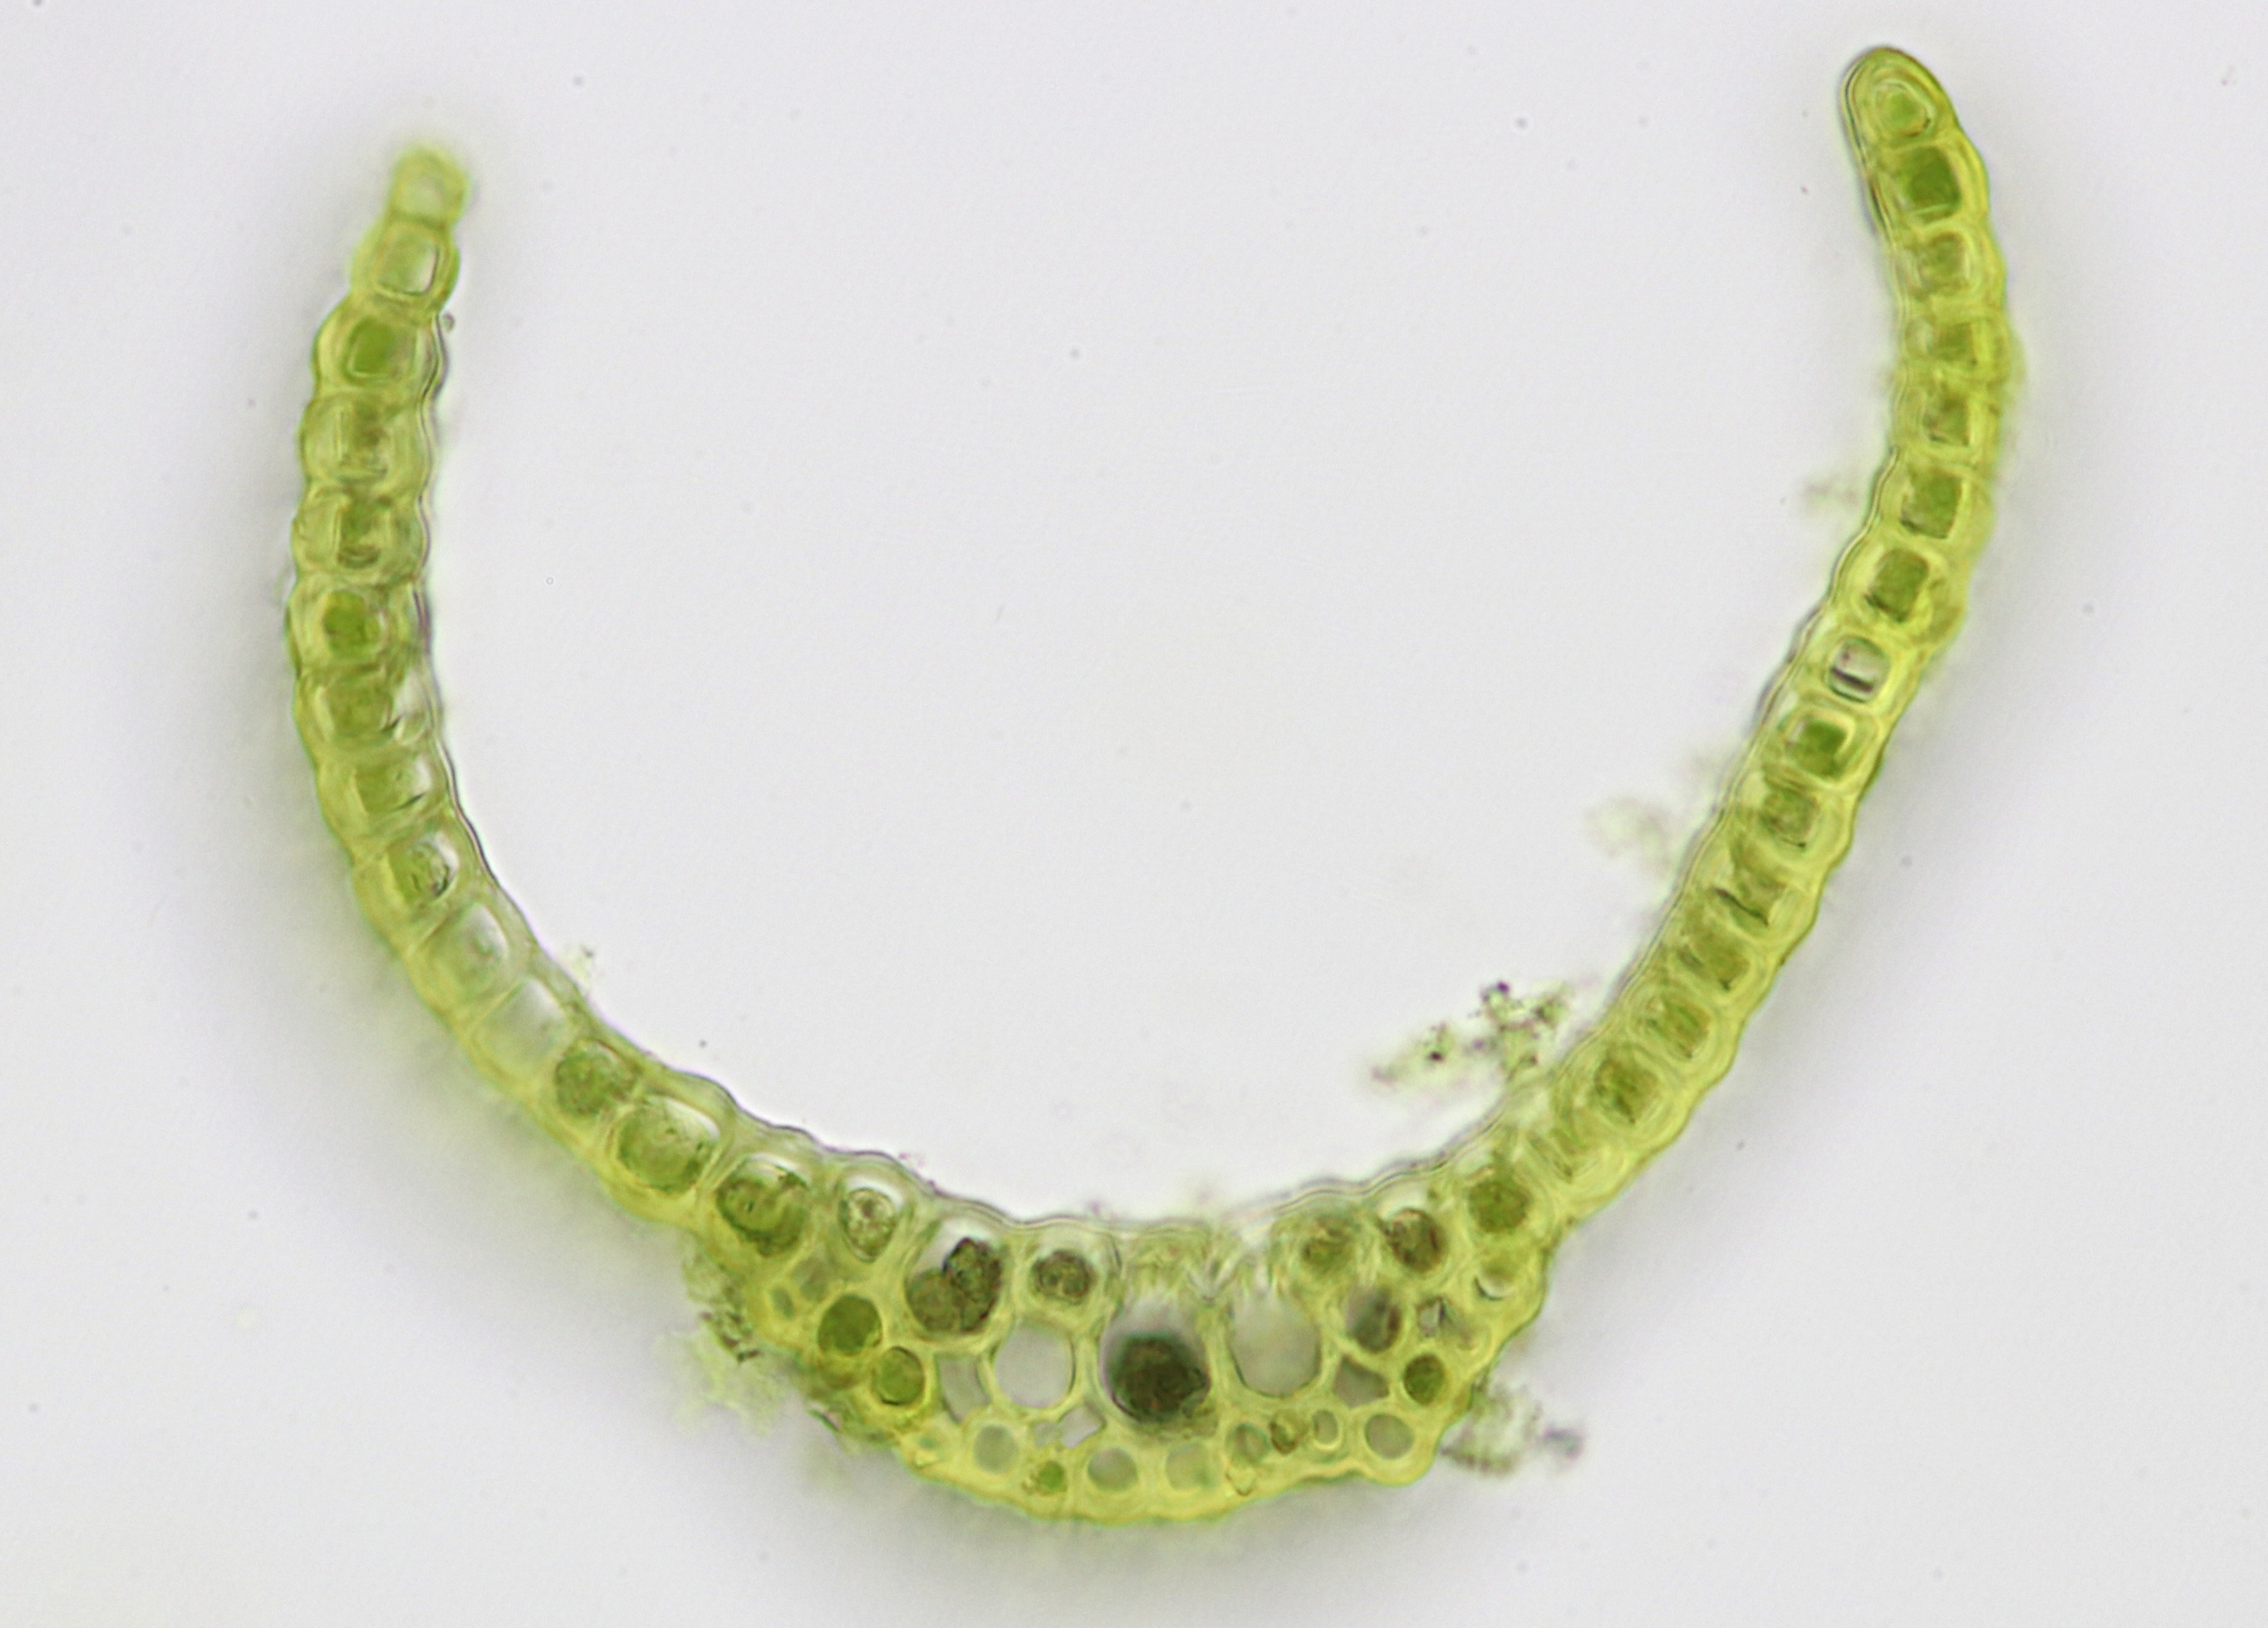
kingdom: Plantae
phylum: Bryophyta
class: Bryopsida
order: Dicranales
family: Dicranaceae
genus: Orthodicranum
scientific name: Orthodicranum tauricum
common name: Skør tyndvinge
